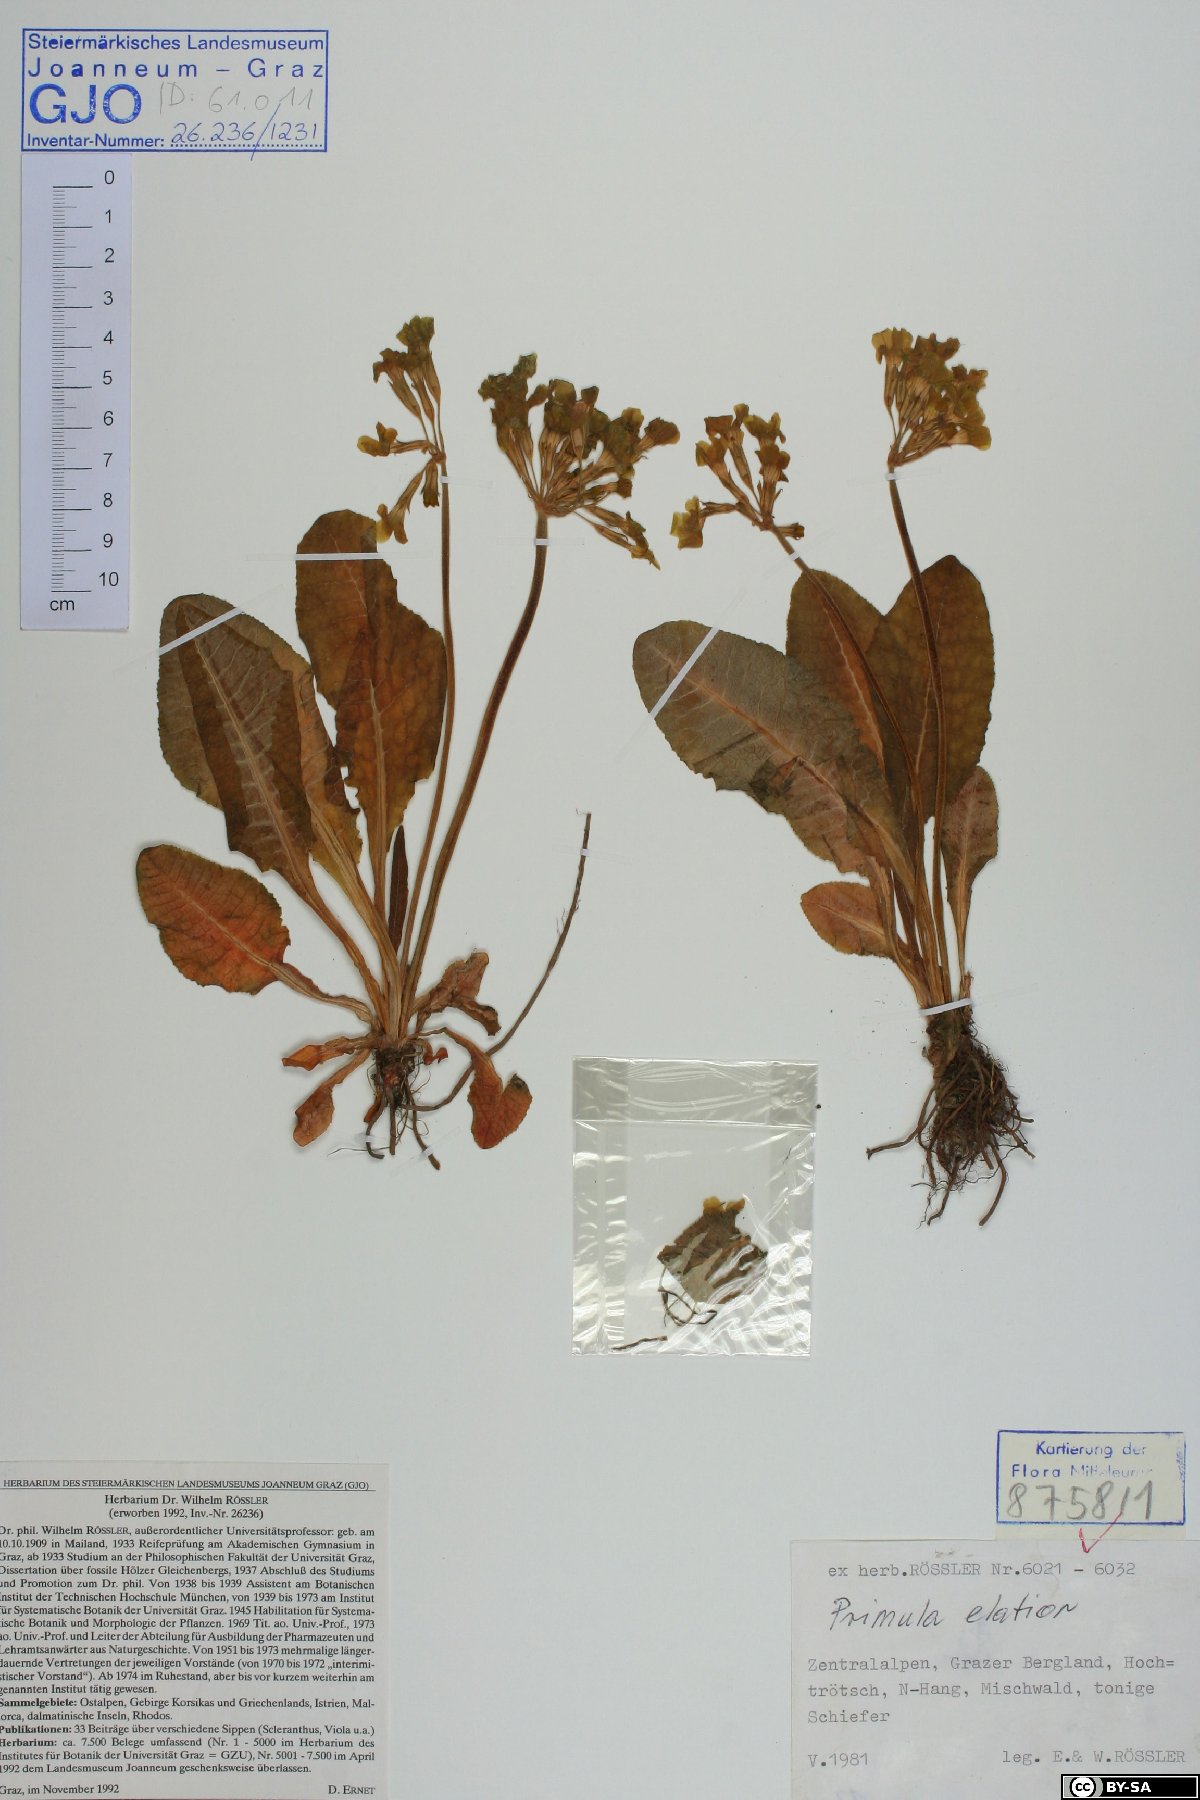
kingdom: Plantae
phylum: Tracheophyta
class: Magnoliopsida
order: Ericales
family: Primulaceae
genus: Primula
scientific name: Primula elatior
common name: Oxlip
